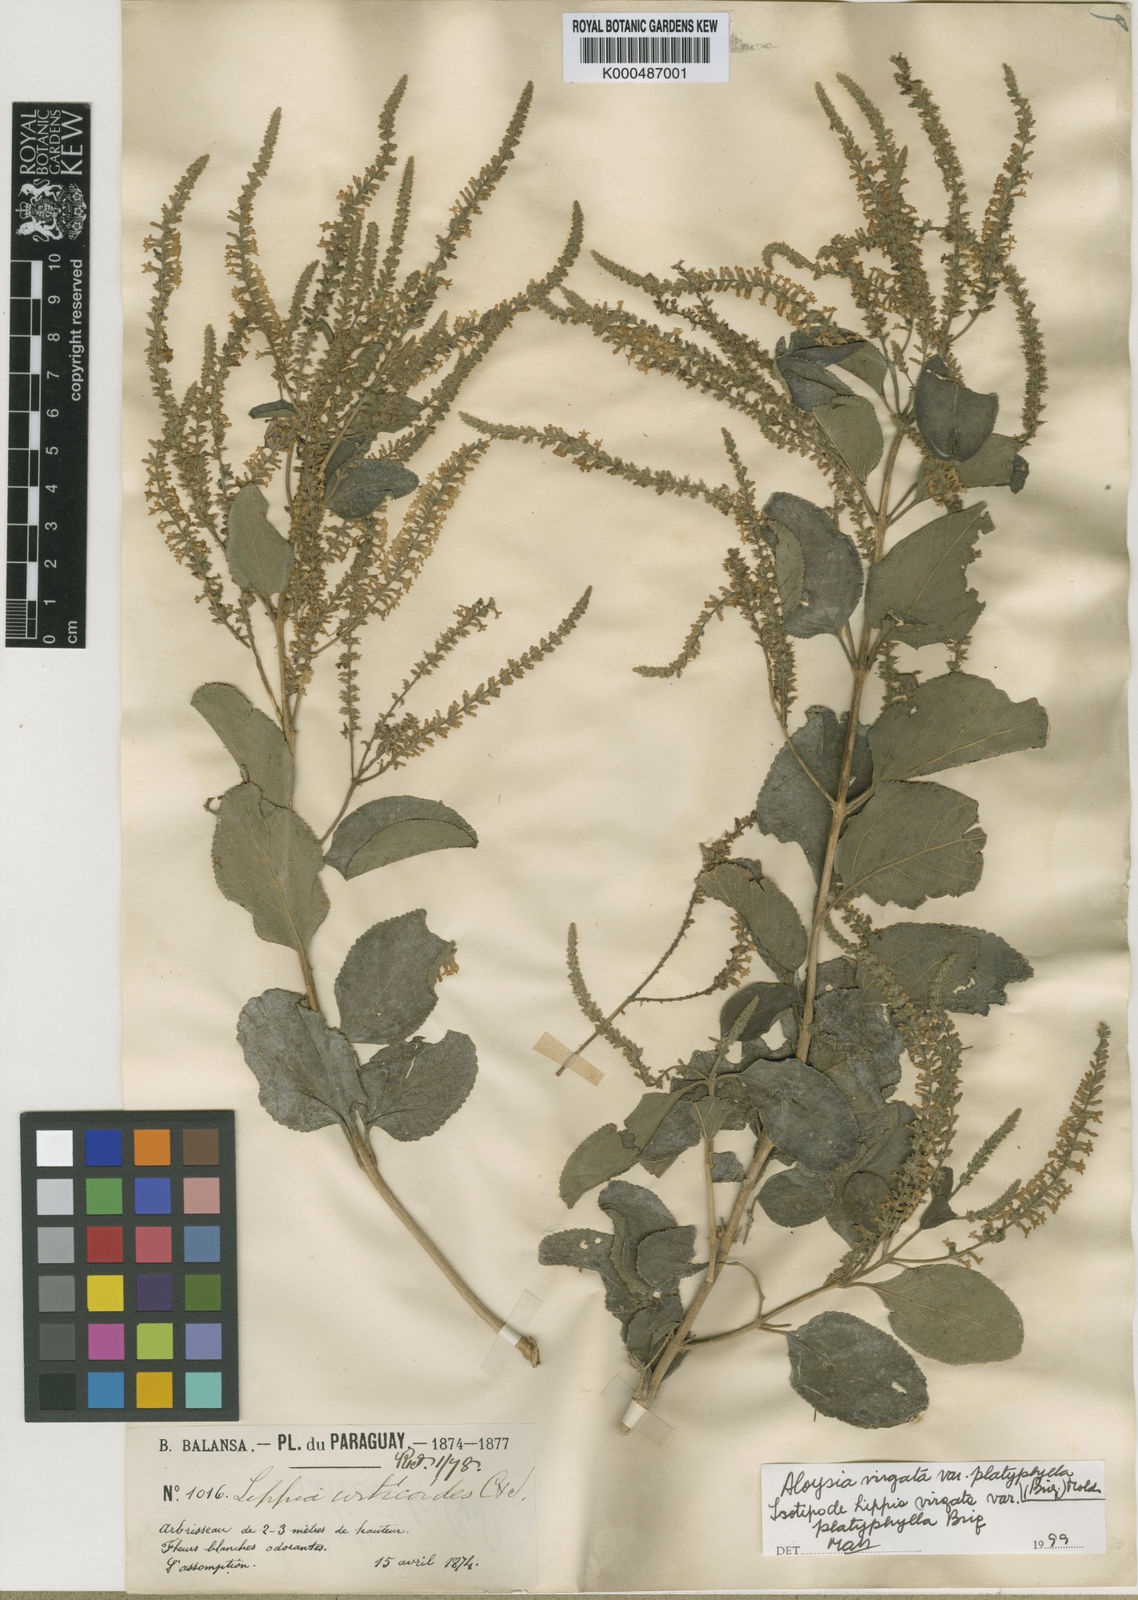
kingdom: Plantae
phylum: Tracheophyta
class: Magnoliopsida
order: Lamiales
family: Verbenaceae
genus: Aloysia
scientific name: Aloysia virgata
